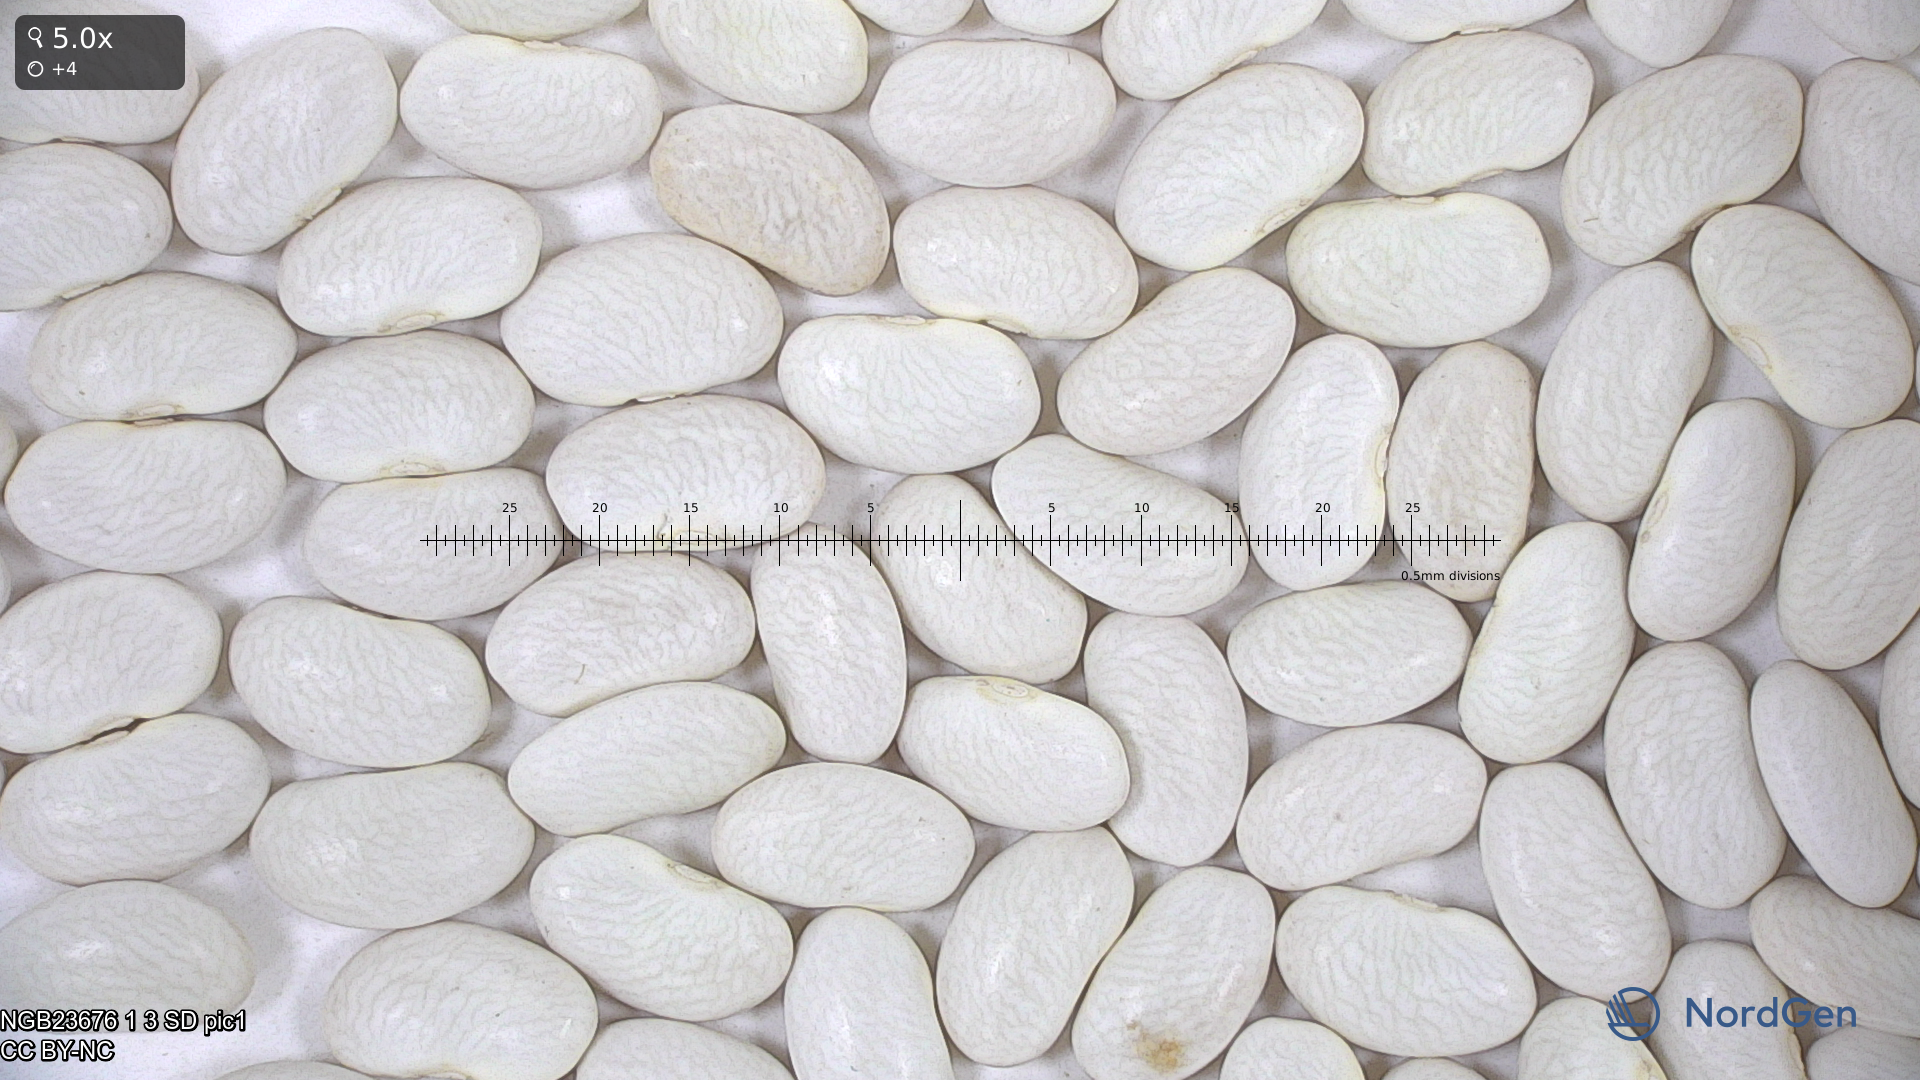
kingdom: Plantae
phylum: Tracheophyta
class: Magnoliopsida
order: Fabales
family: Fabaceae
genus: Phaseolus
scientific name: Phaseolus vulgaris
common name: Bean
